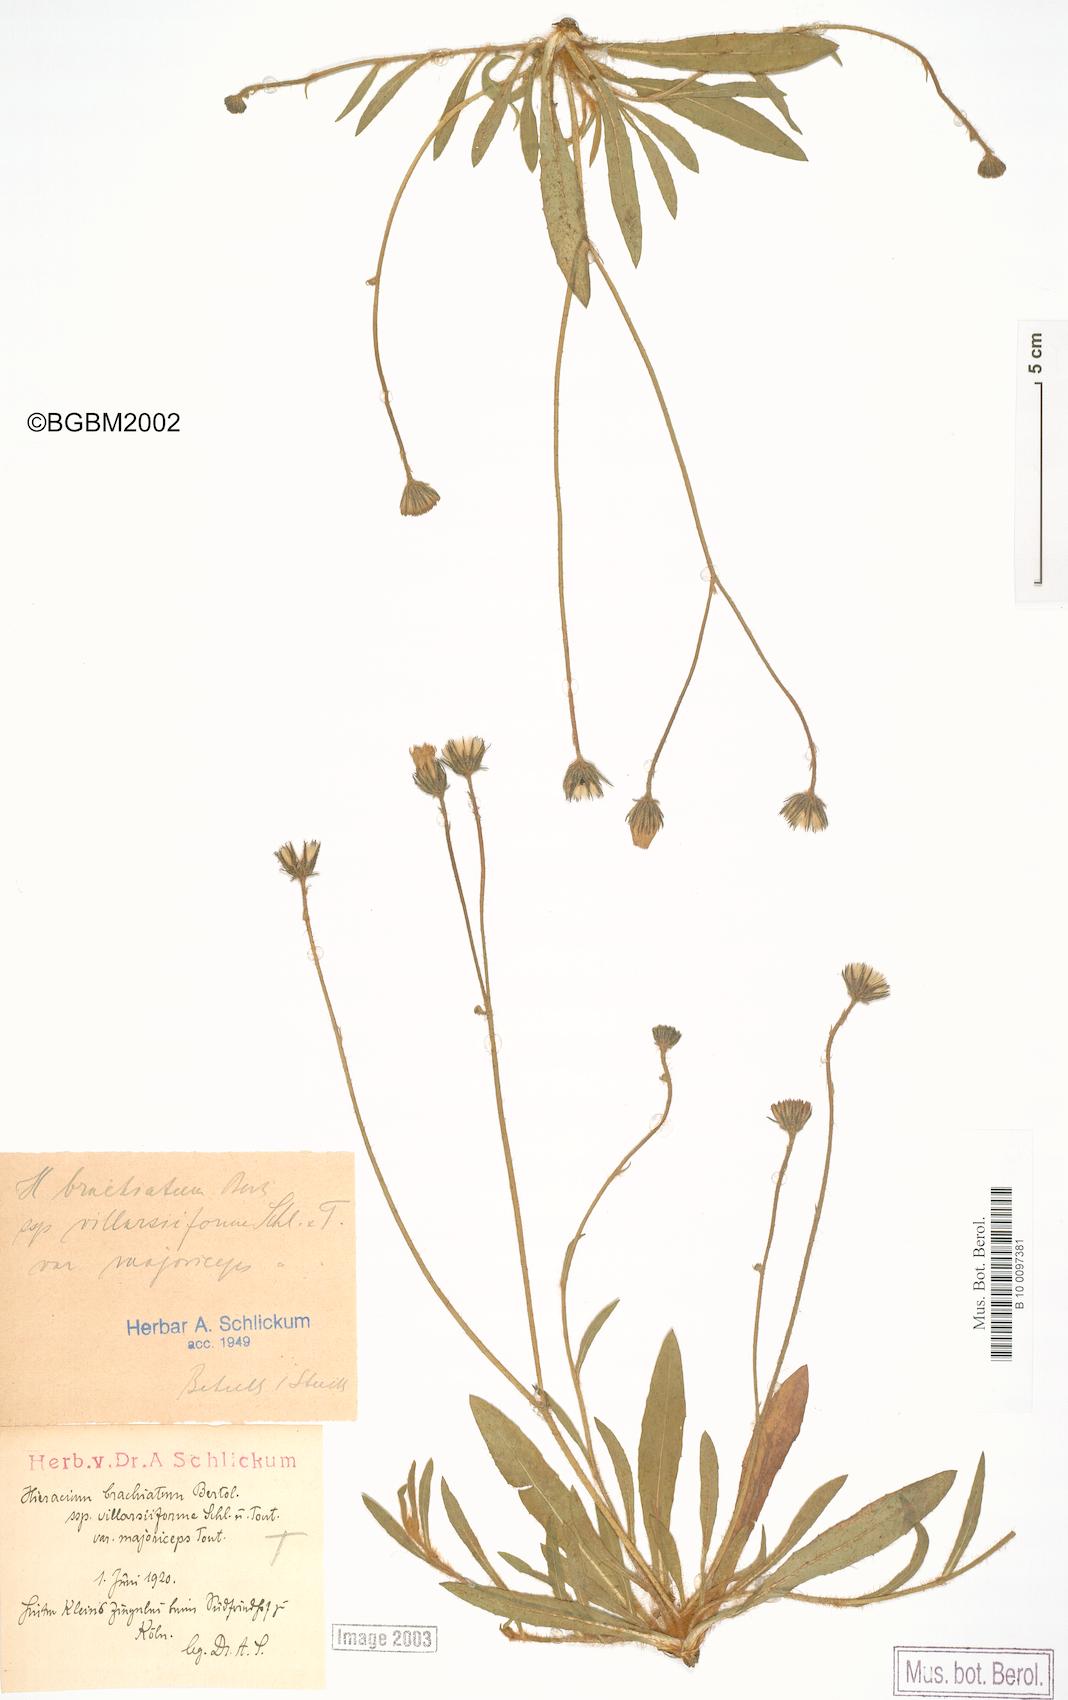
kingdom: Plantae
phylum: Tracheophyta
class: Magnoliopsida
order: Asterales
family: Asteraceae
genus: Pilosella
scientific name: Pilosella acutifolia
